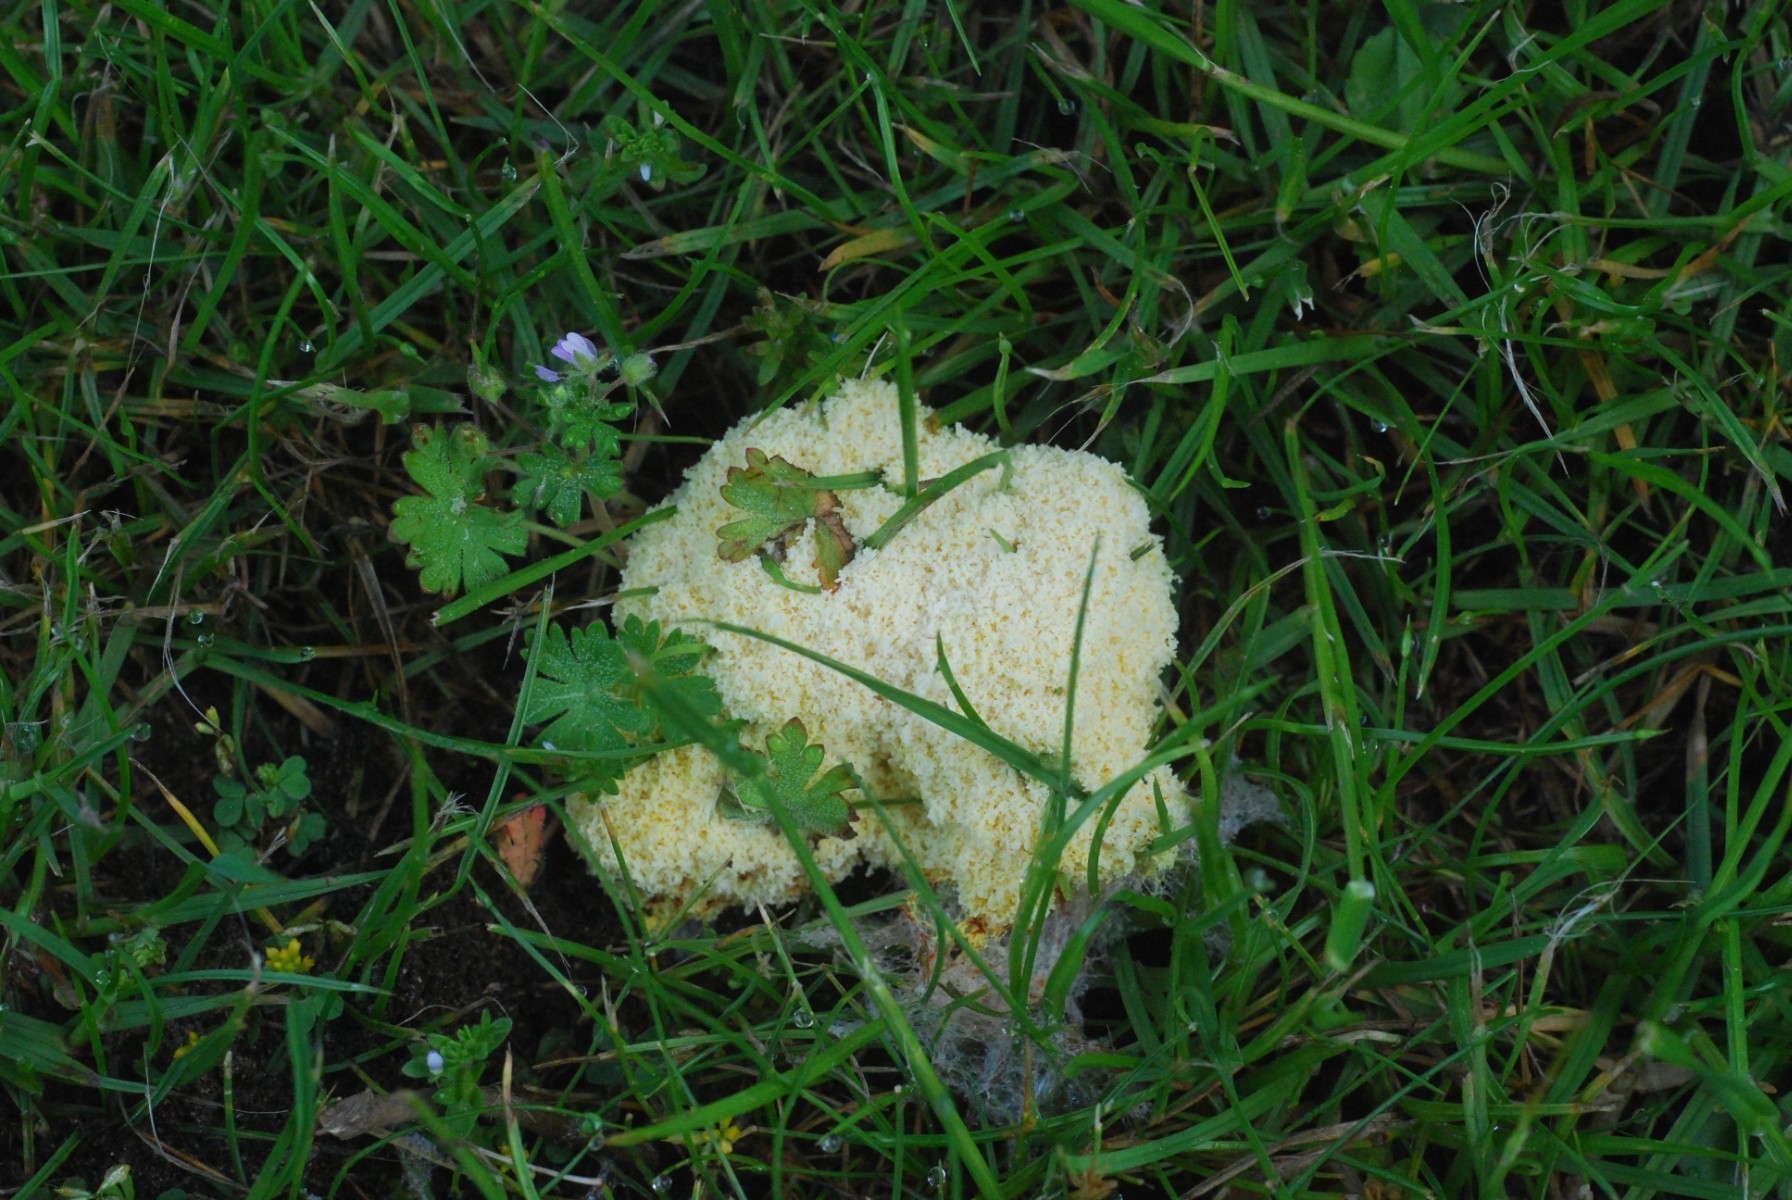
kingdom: Protozoa
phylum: Mycetozoa
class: Myxomycetes
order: Physarales
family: Physaraceae
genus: Fuligo
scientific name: Fuligo septica
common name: Dog vomit slime mold
